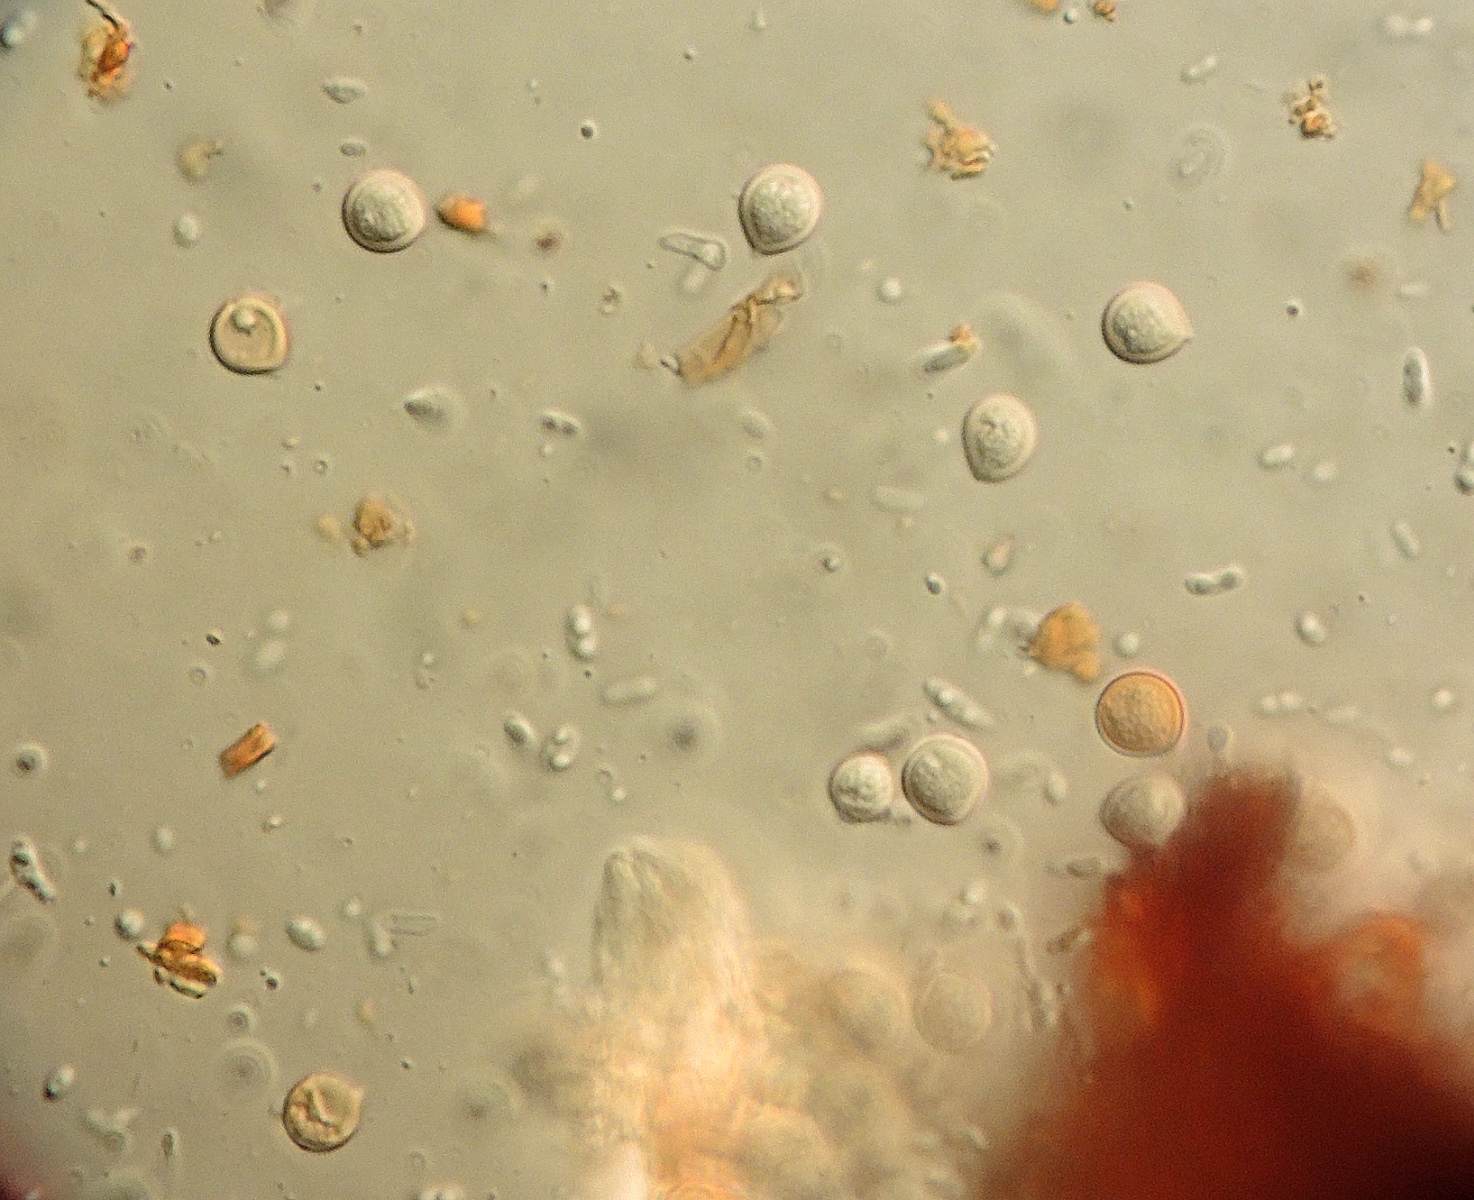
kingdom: Fungi
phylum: Basidiomycota
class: Agaricomycetes
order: Hymenochaetales
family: Hymenochaetaceae
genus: Pseudoinonotus
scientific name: Pseudoinonotus dryadeus
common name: ege-spejlporesvamp
